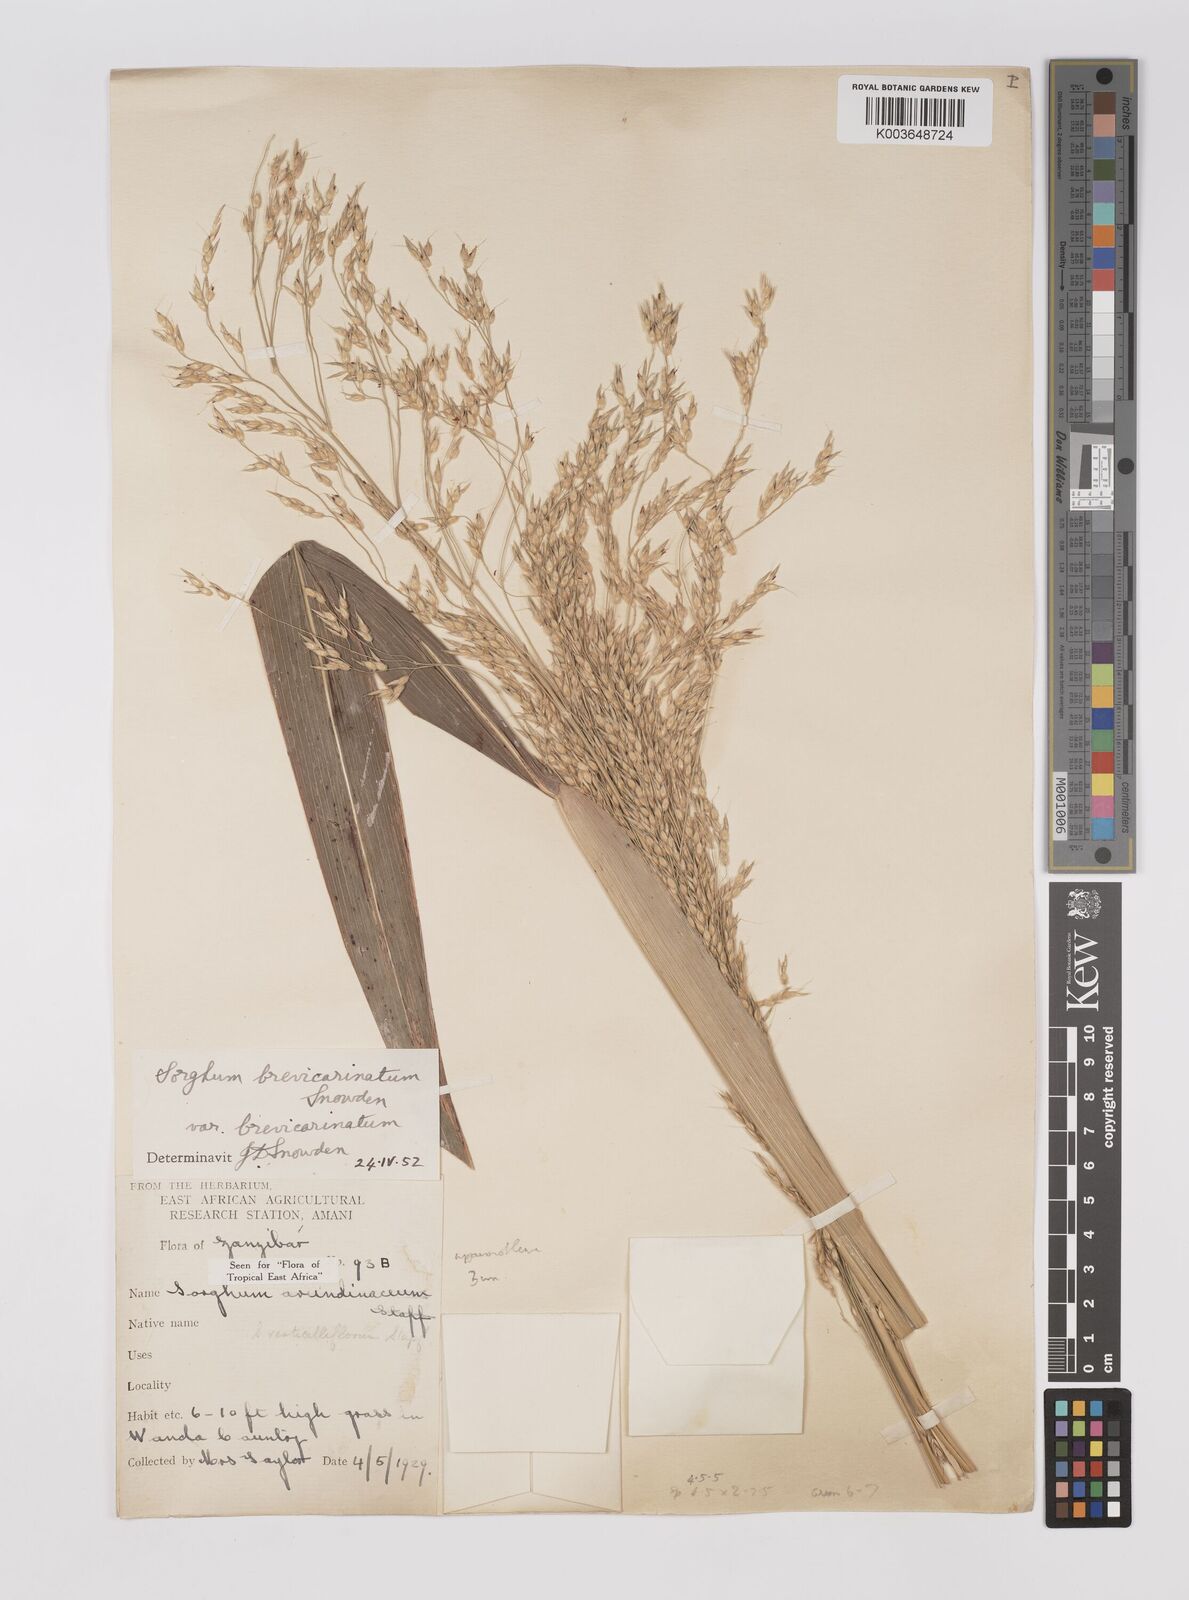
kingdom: Plantae
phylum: Tracheophyta
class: Liliopsida
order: Poales
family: Poaceae
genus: Sorghum
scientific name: Sorghum arundinaceum
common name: Sorghum
